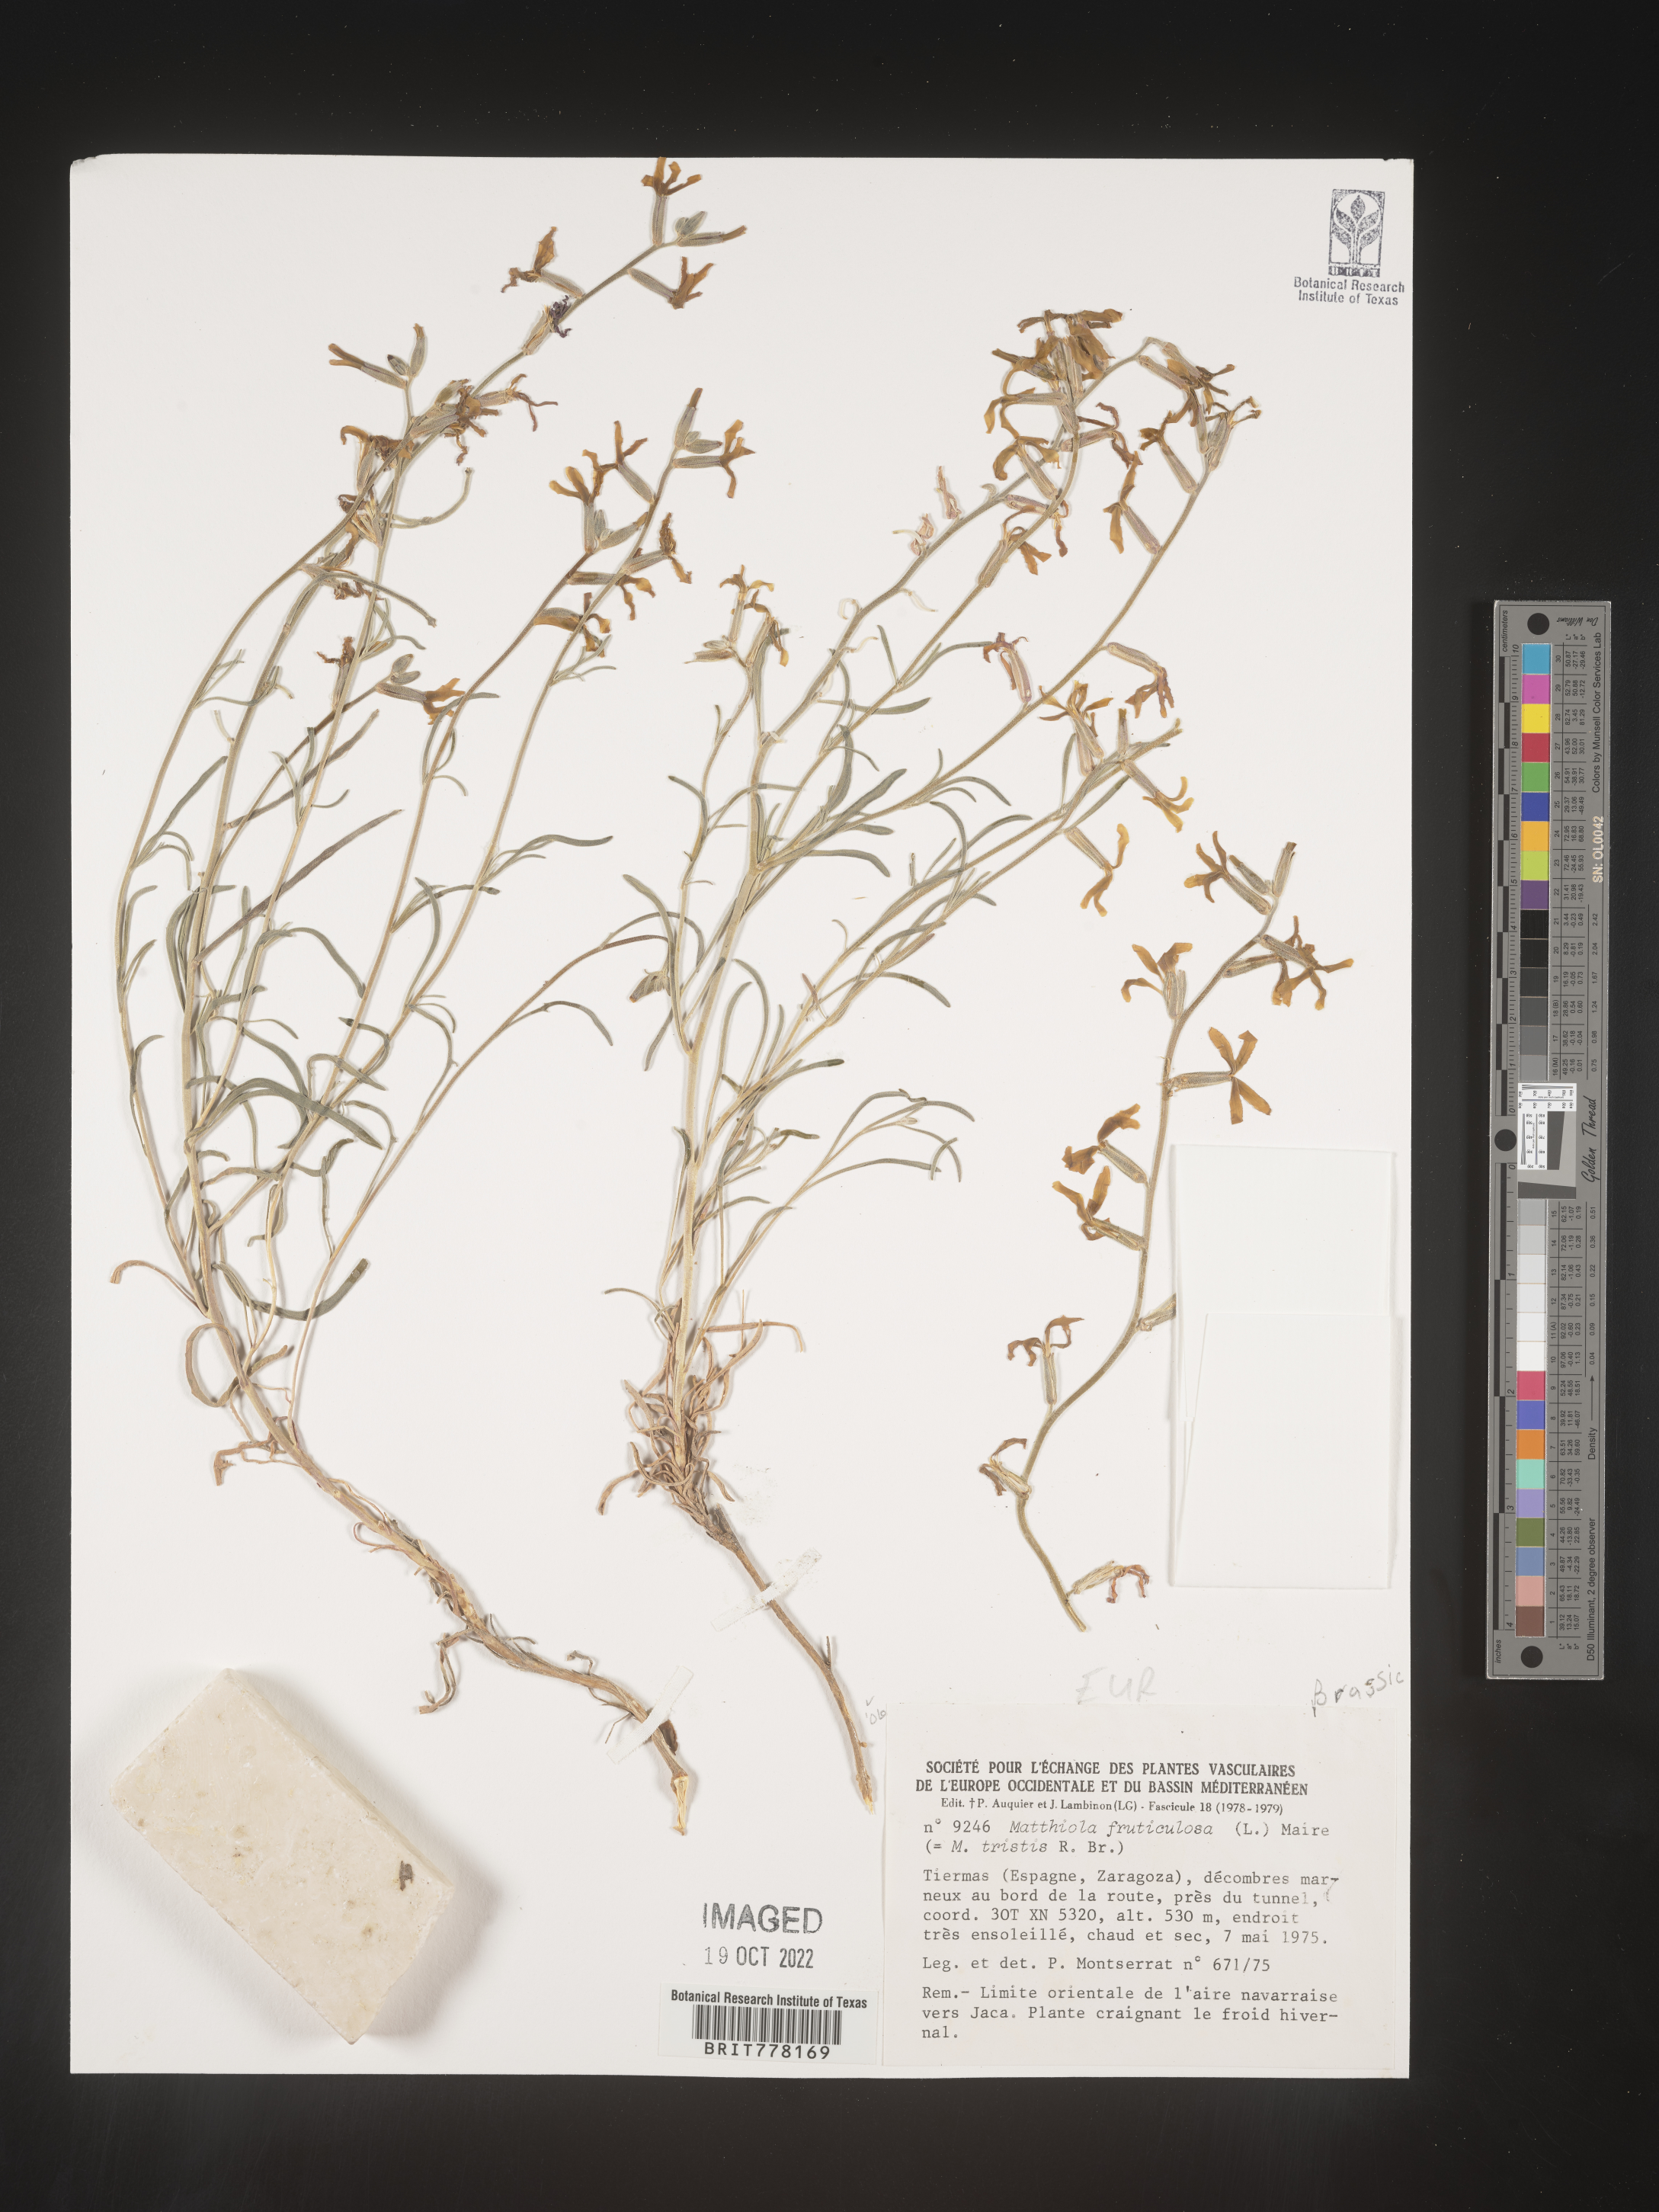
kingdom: Plantae
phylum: Tracheophyta
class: Magnoliopsida
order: Brassicales
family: Brassicaceae
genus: Matthiola
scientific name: Matthiola
